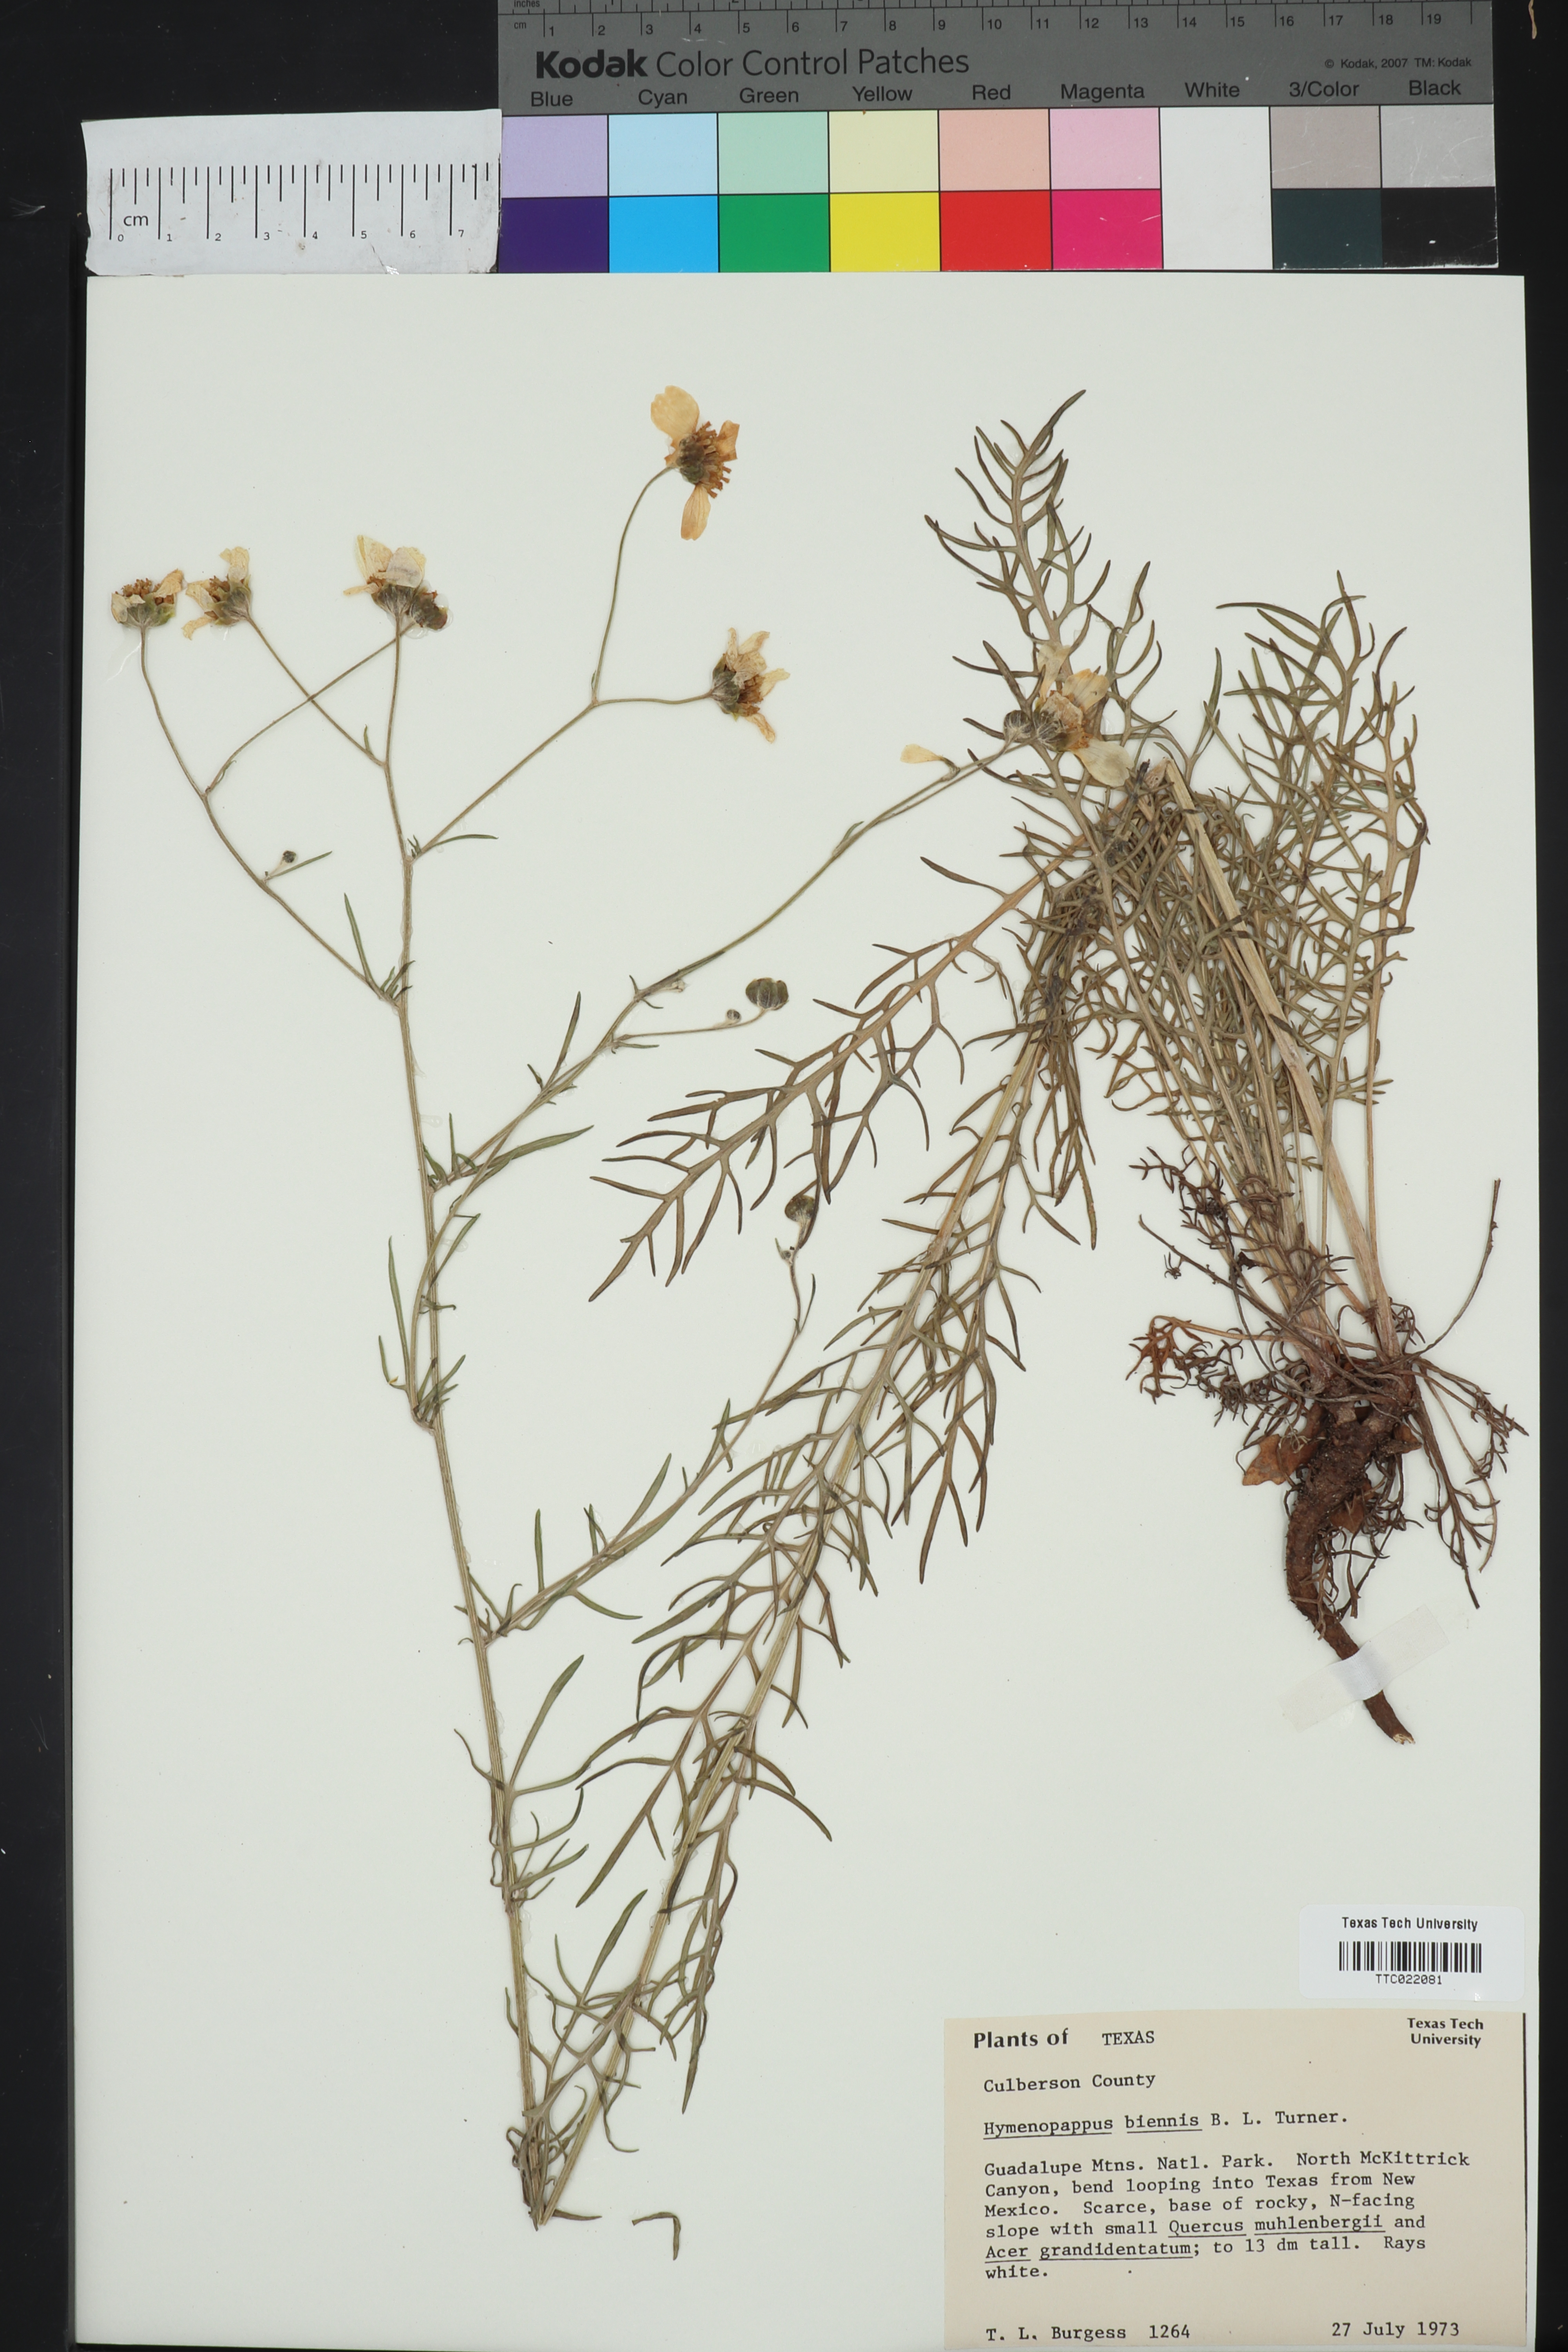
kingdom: Plantae
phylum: Tracheophyta
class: Magnoliopsida
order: Asterales
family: Asteraceae
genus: Hymenopappus
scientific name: Hymenopappus biennis
